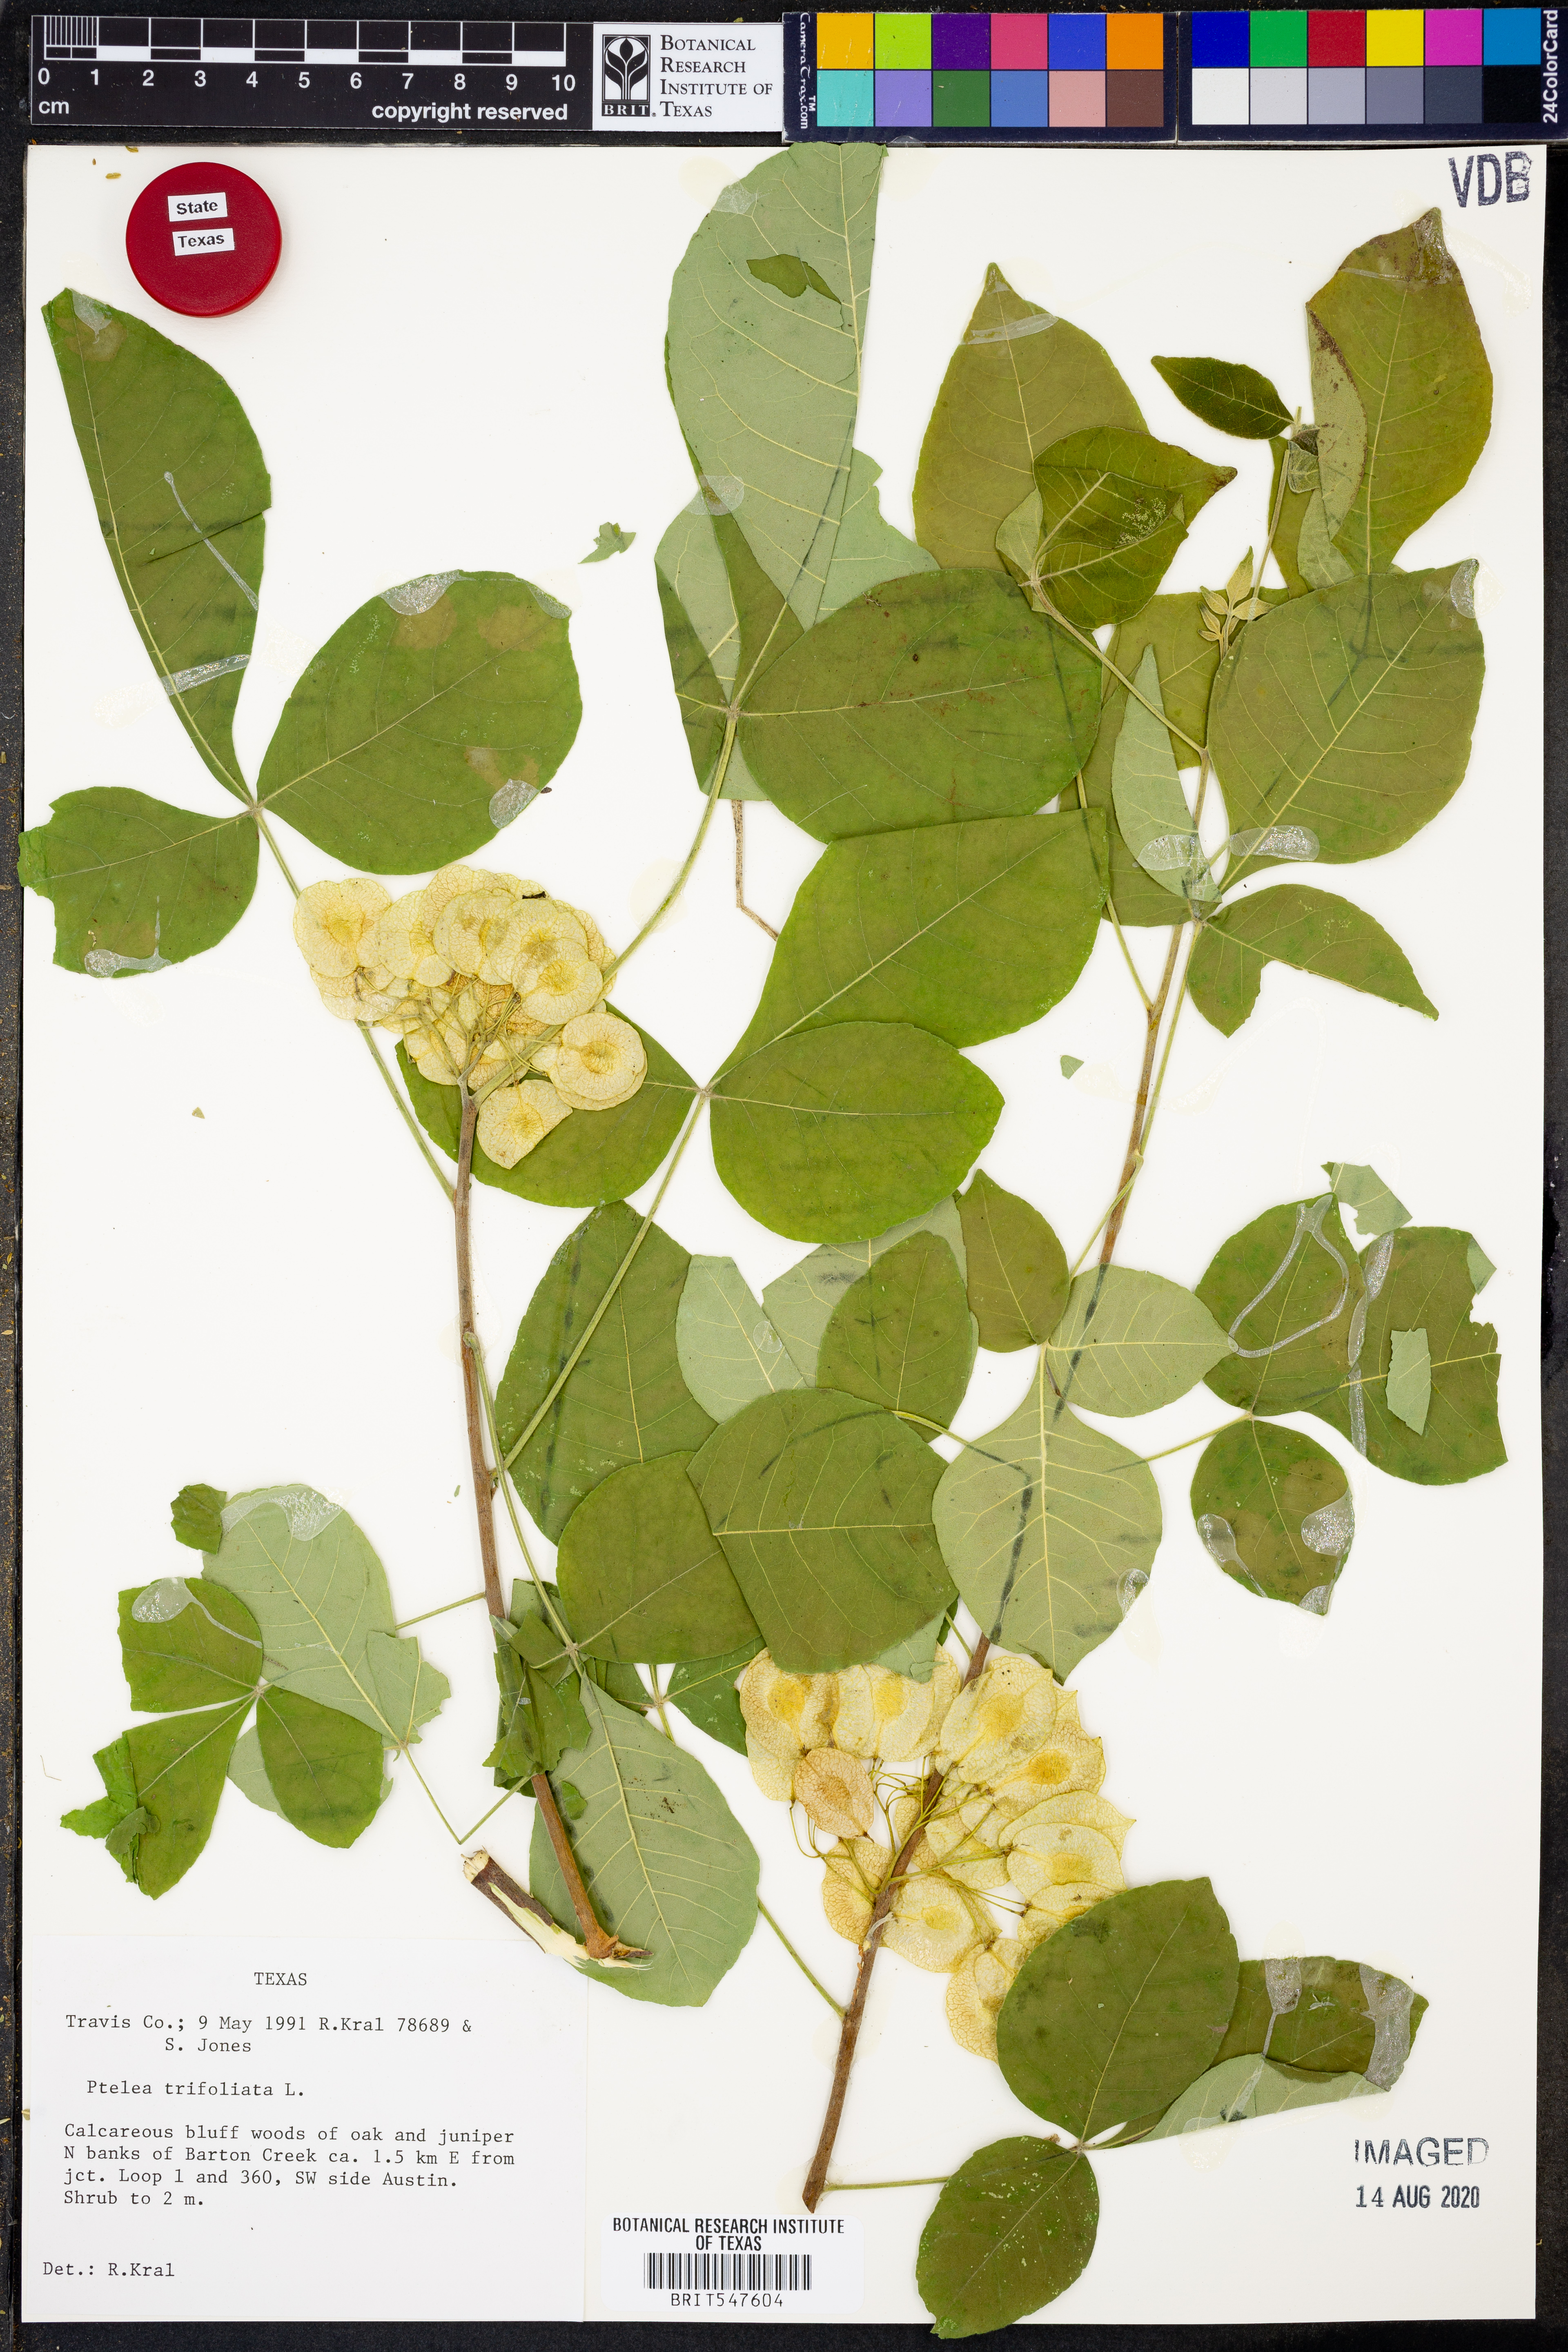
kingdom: Plantae
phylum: Tracheophyta
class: Magnoliopsida
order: Sapindales
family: Rutaceae
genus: Ptelea
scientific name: Ptelea trifoliata
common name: Common hop-tree
